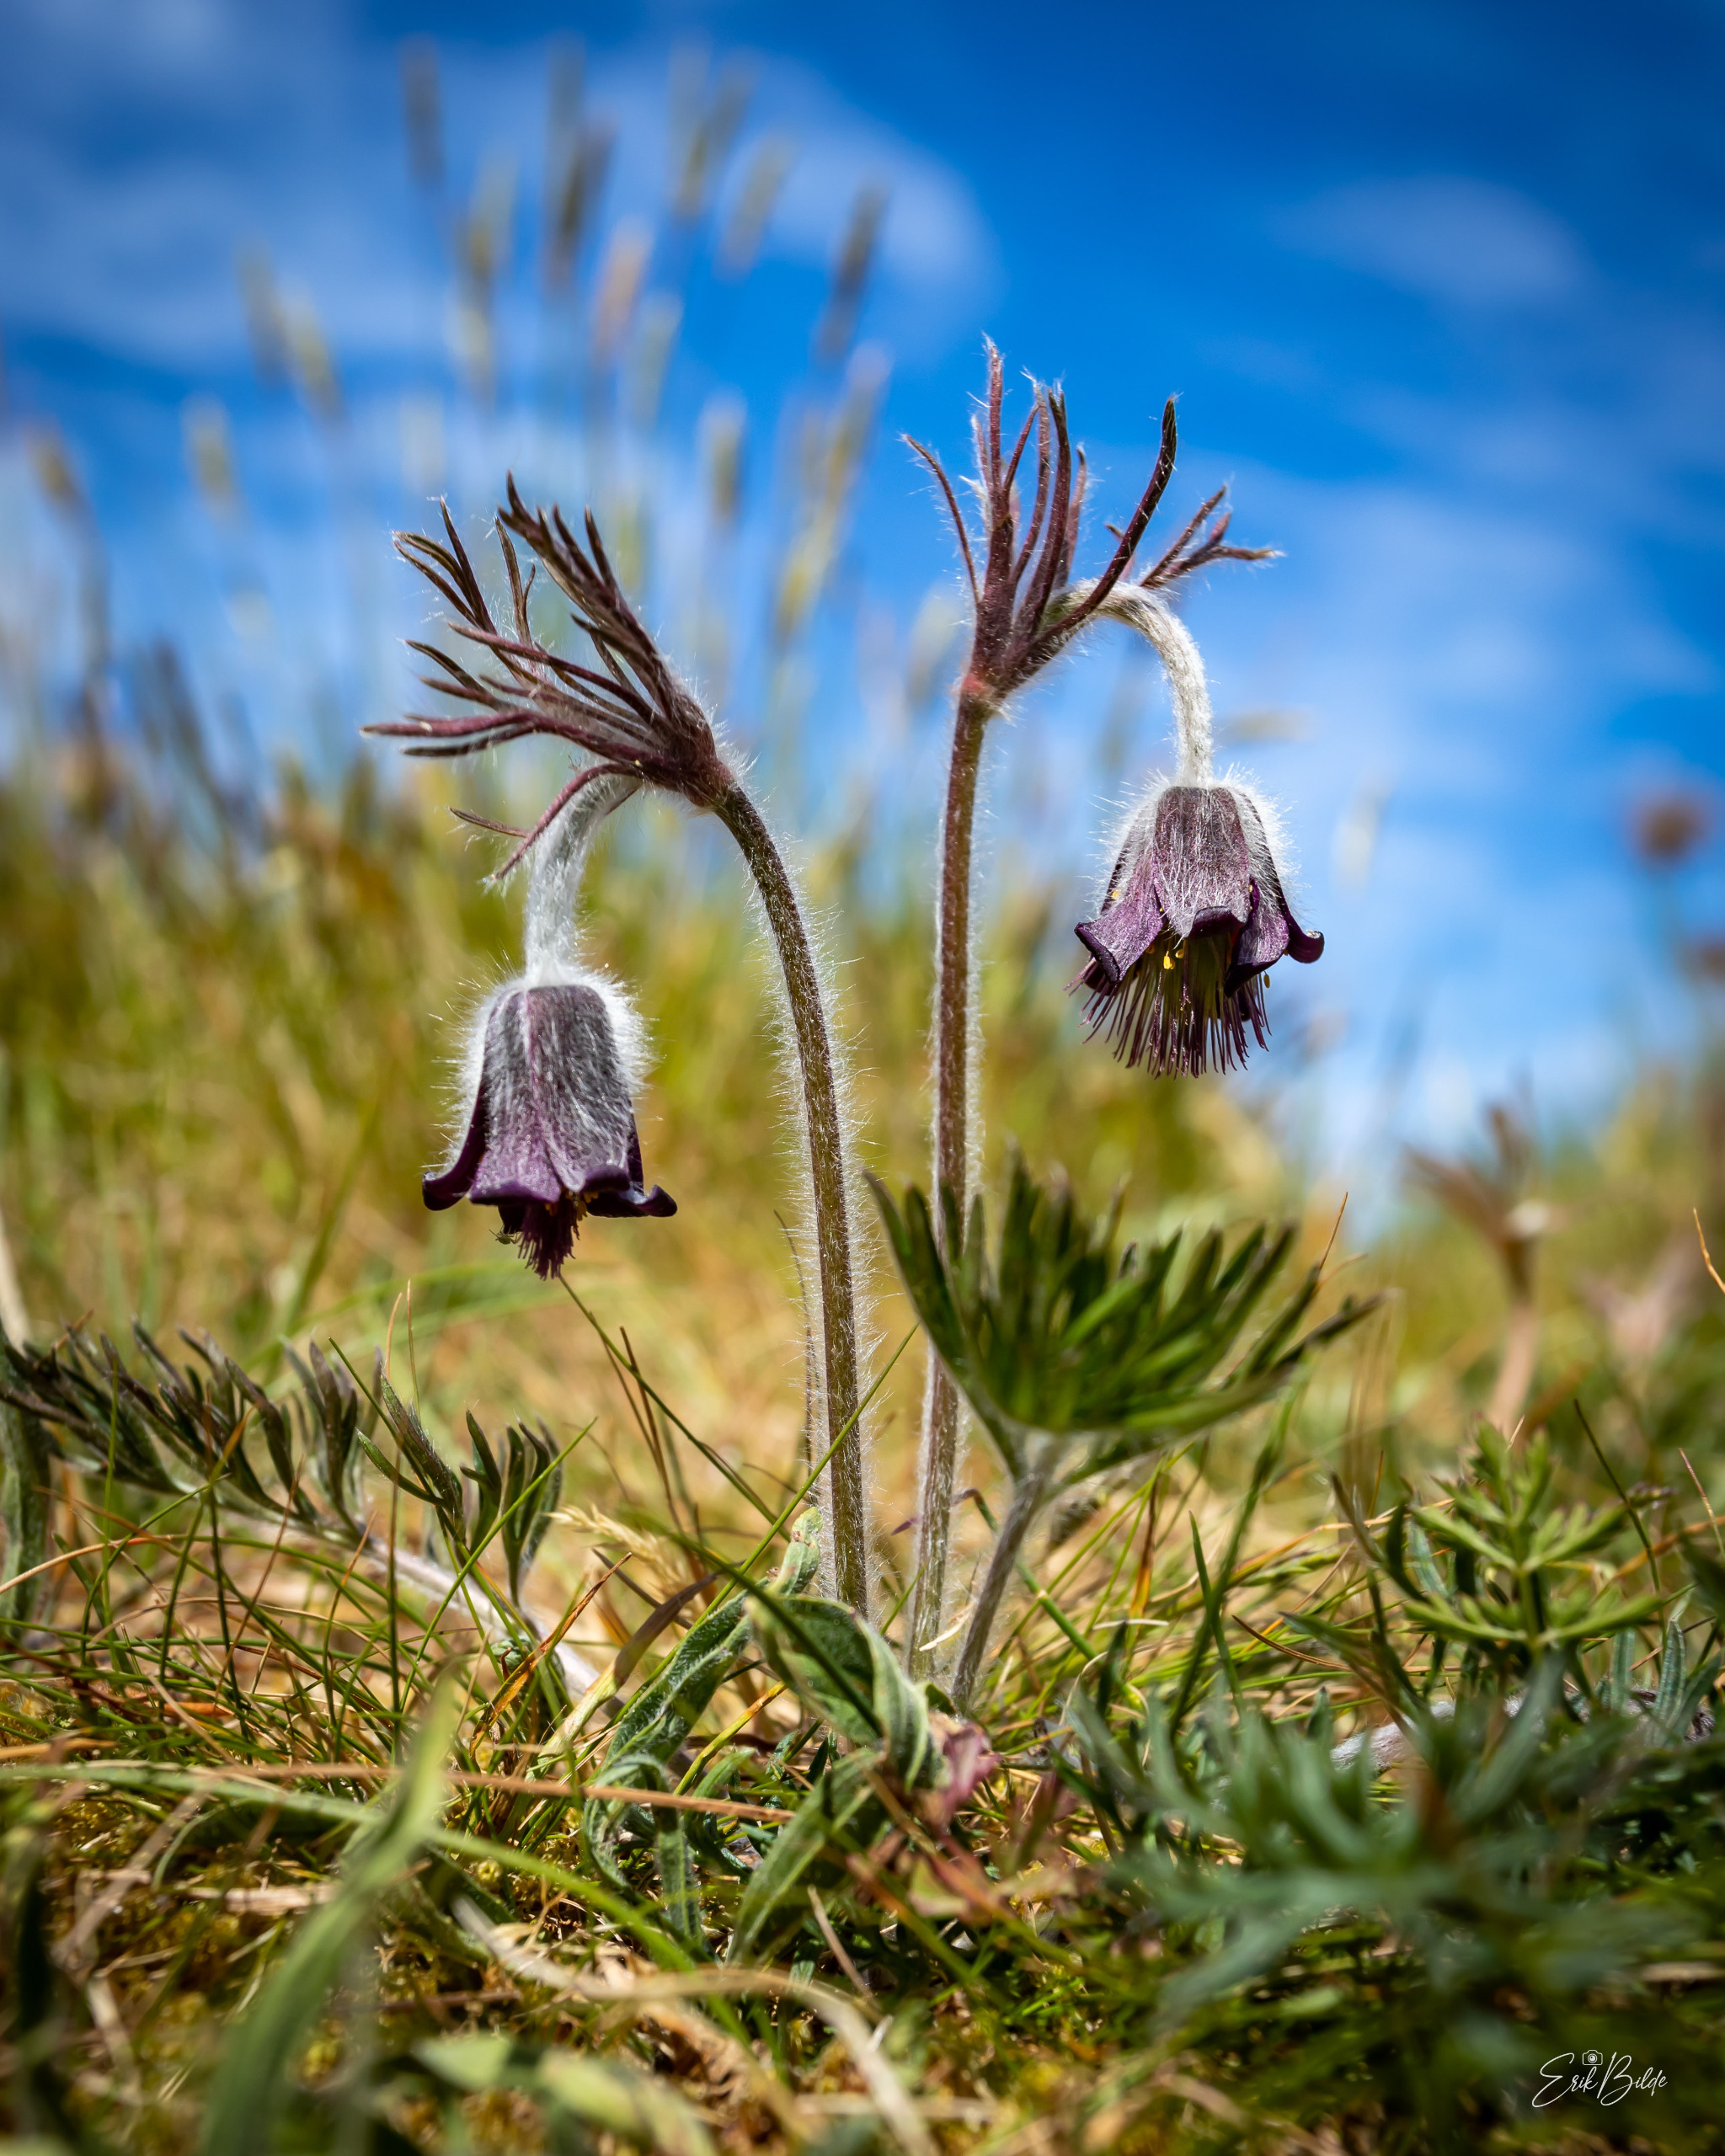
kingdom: Plantae
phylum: Tracheophyta
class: Magnoliopsida
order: Ranunculales
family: Ranunculaceae
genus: Pulsatilla
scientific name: Pulsatilla pratensis
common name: Nikkende kobjælde
